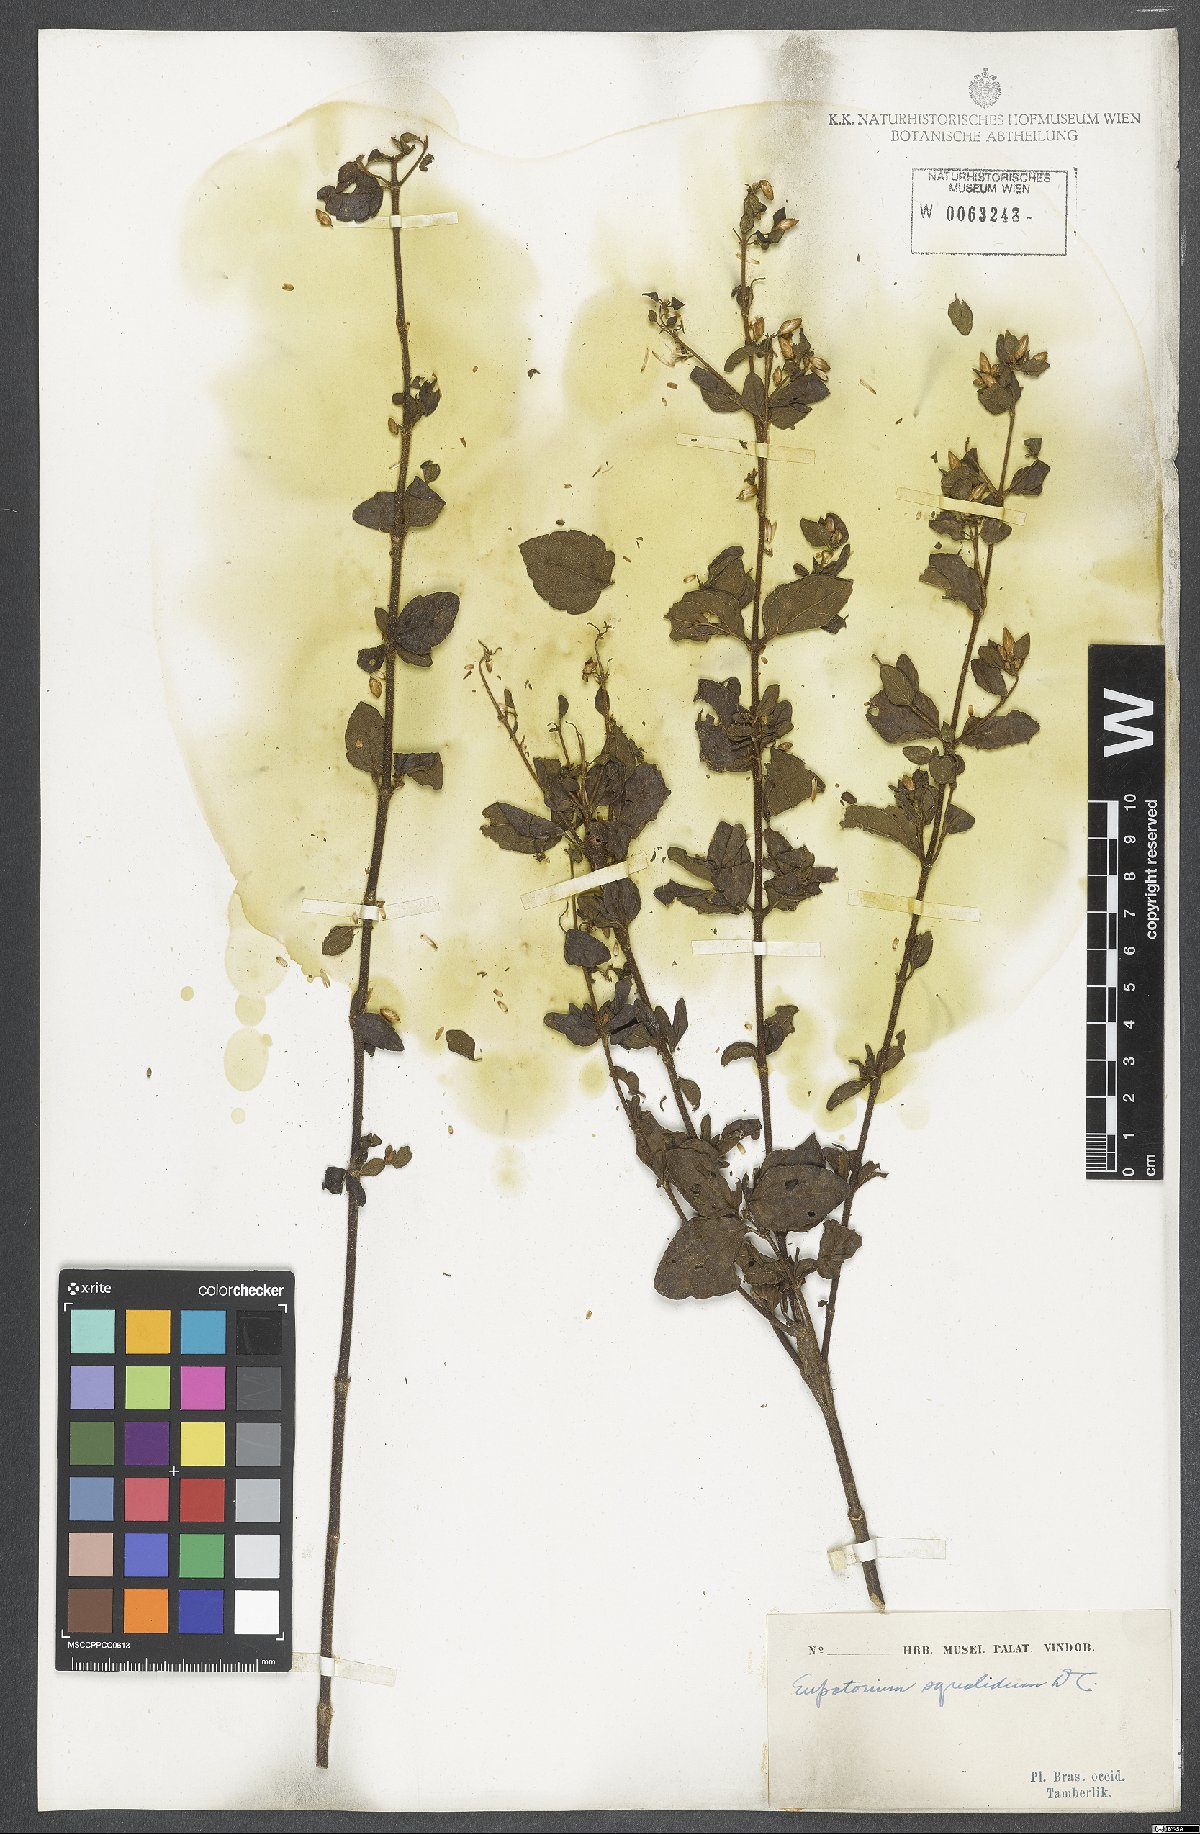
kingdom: Plantae
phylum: Tracheophyta
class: Magnoliopsida
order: Asterales
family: Asteraceae
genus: Chromolaena
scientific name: Chromolaena squalida
